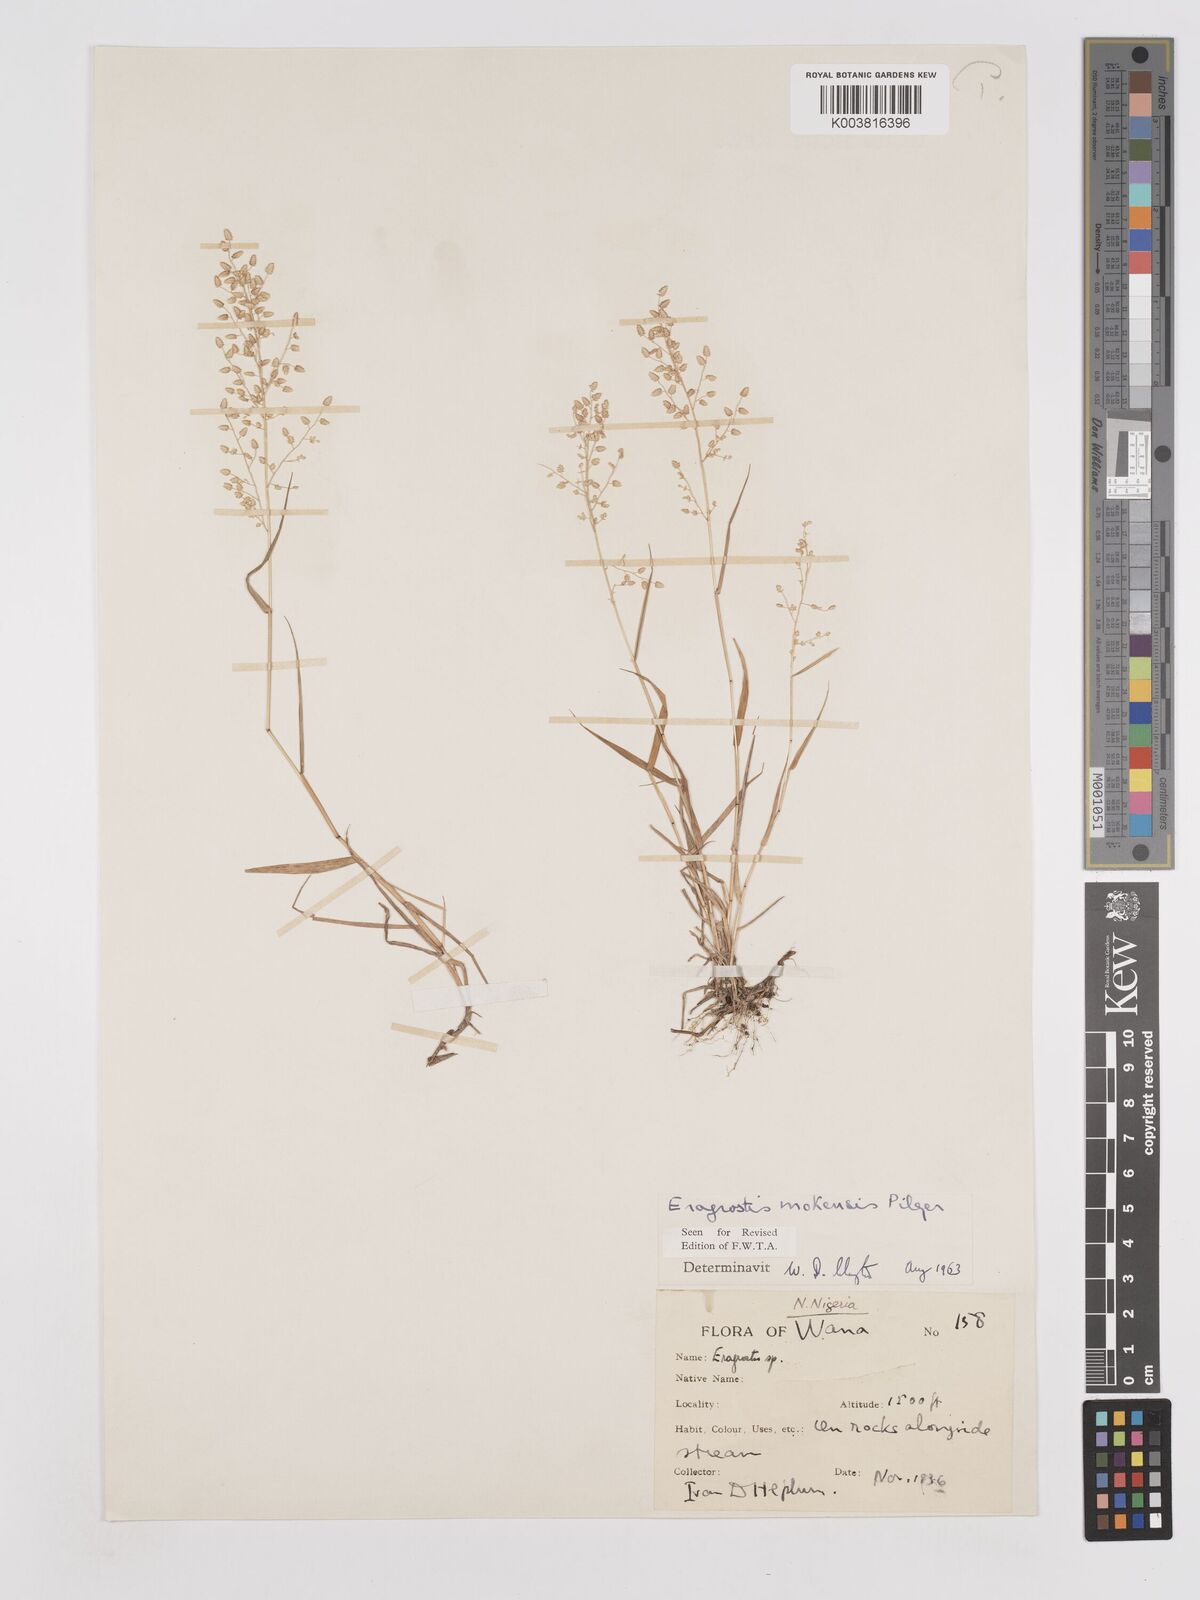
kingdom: Plantae
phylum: Tracheophyta
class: Liliopsida
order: Poales
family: Poaceae
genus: Eragrostis
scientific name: Eragrostis mokensis
